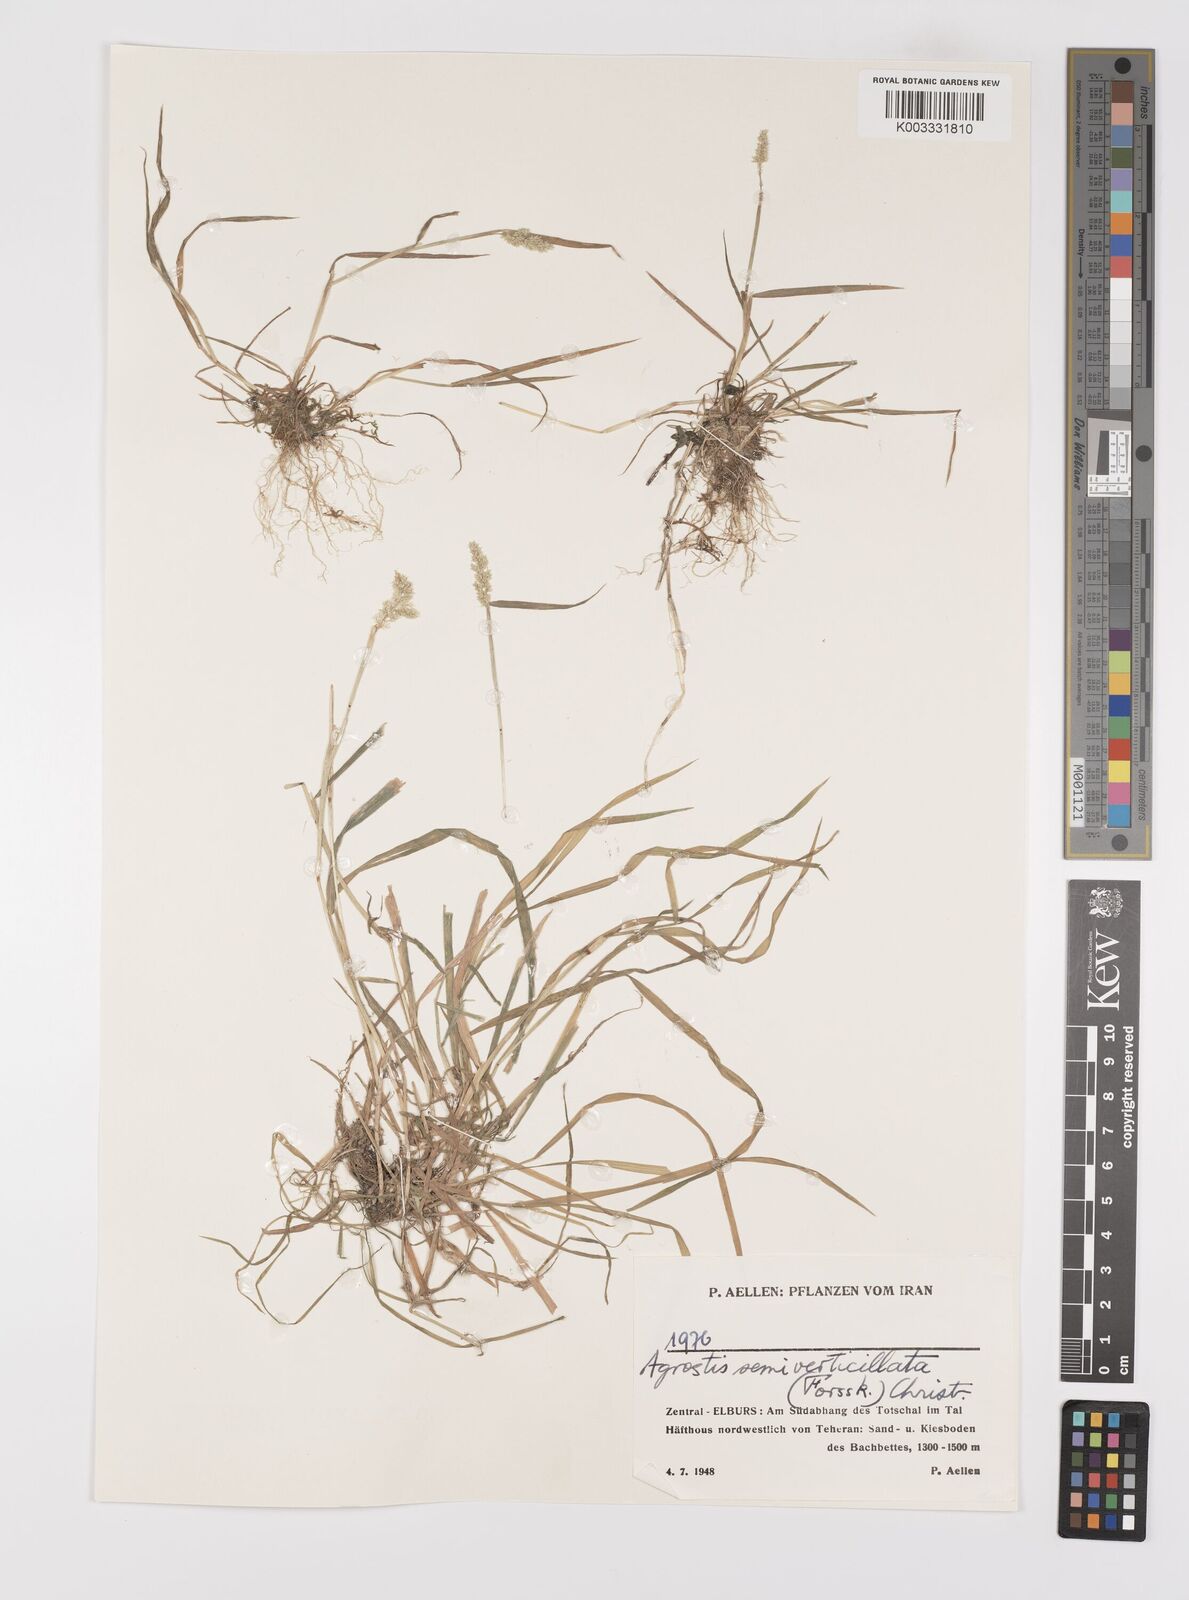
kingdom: Plantae
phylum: Tracheophyta
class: Liliopsida
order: Poales
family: Poaceae
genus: Polypogon
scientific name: Polypogon viridis
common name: Water bent
